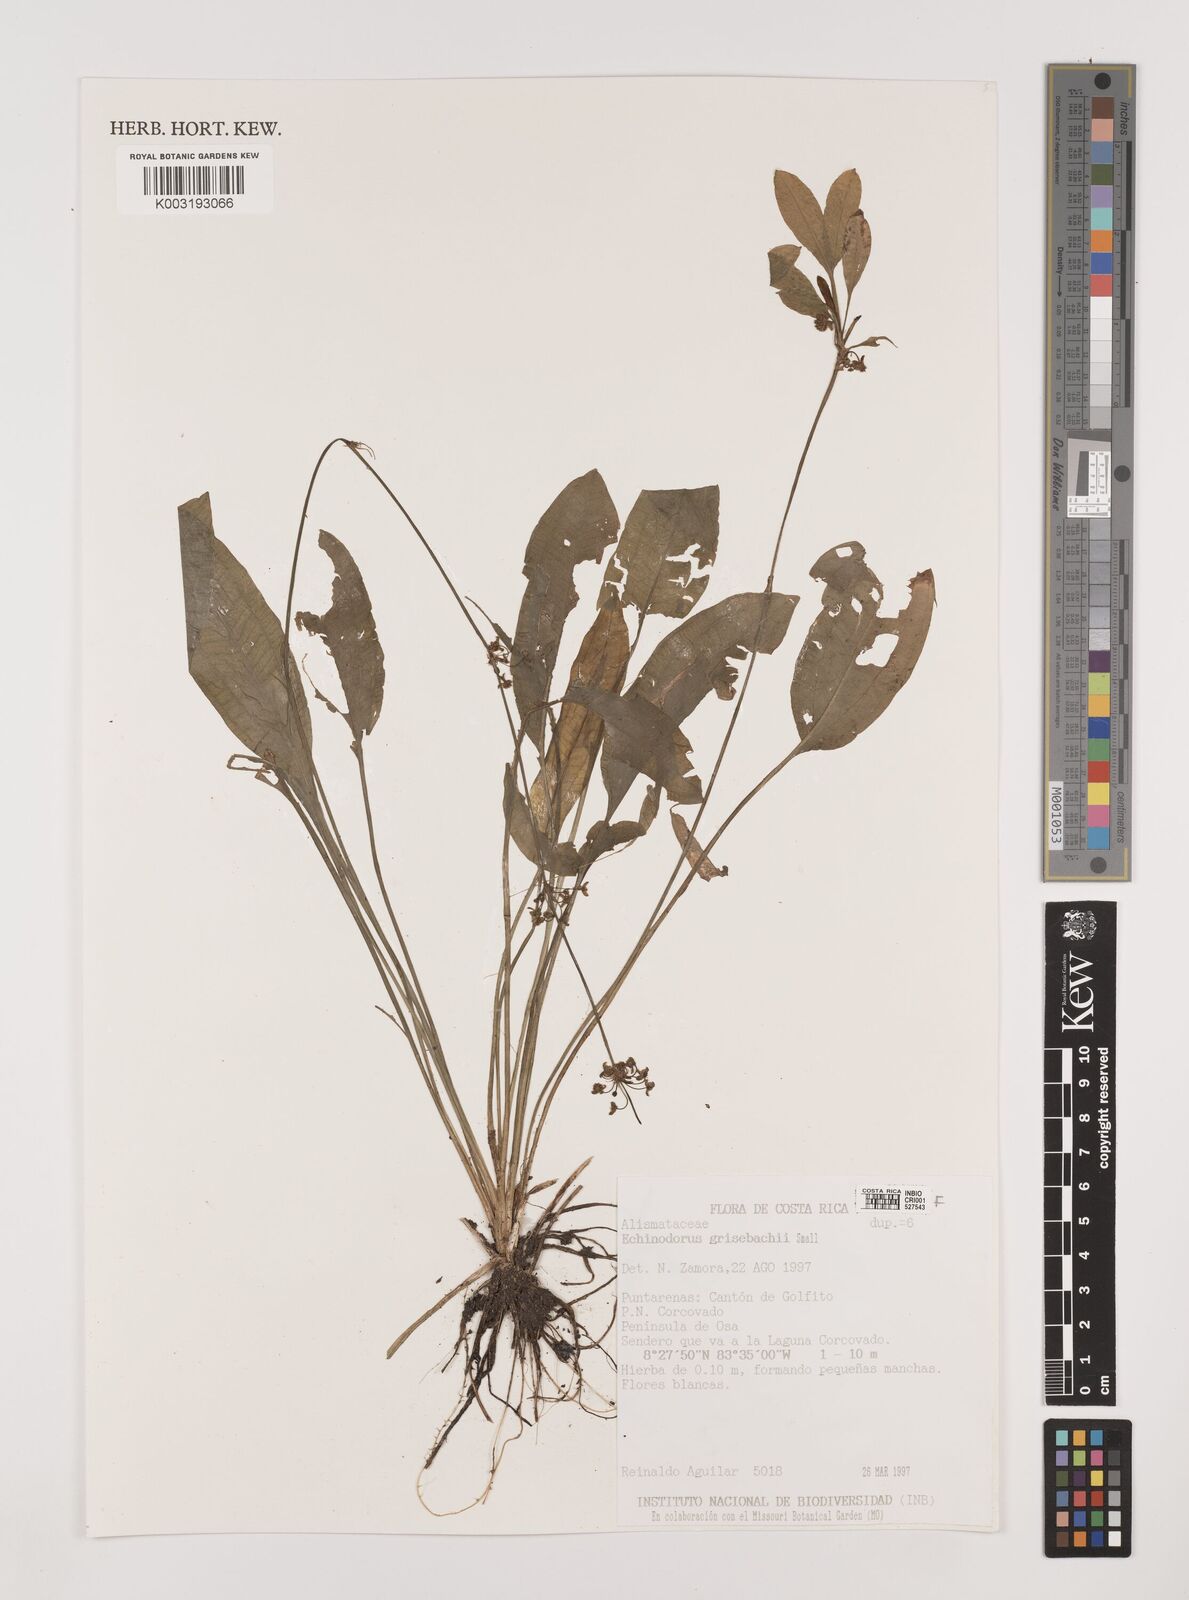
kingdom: Plantae
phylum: Tracheophyta
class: Liliopsida
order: Alismatales
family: Alismataceae
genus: Aquarius
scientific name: Aquarius grisebachii
